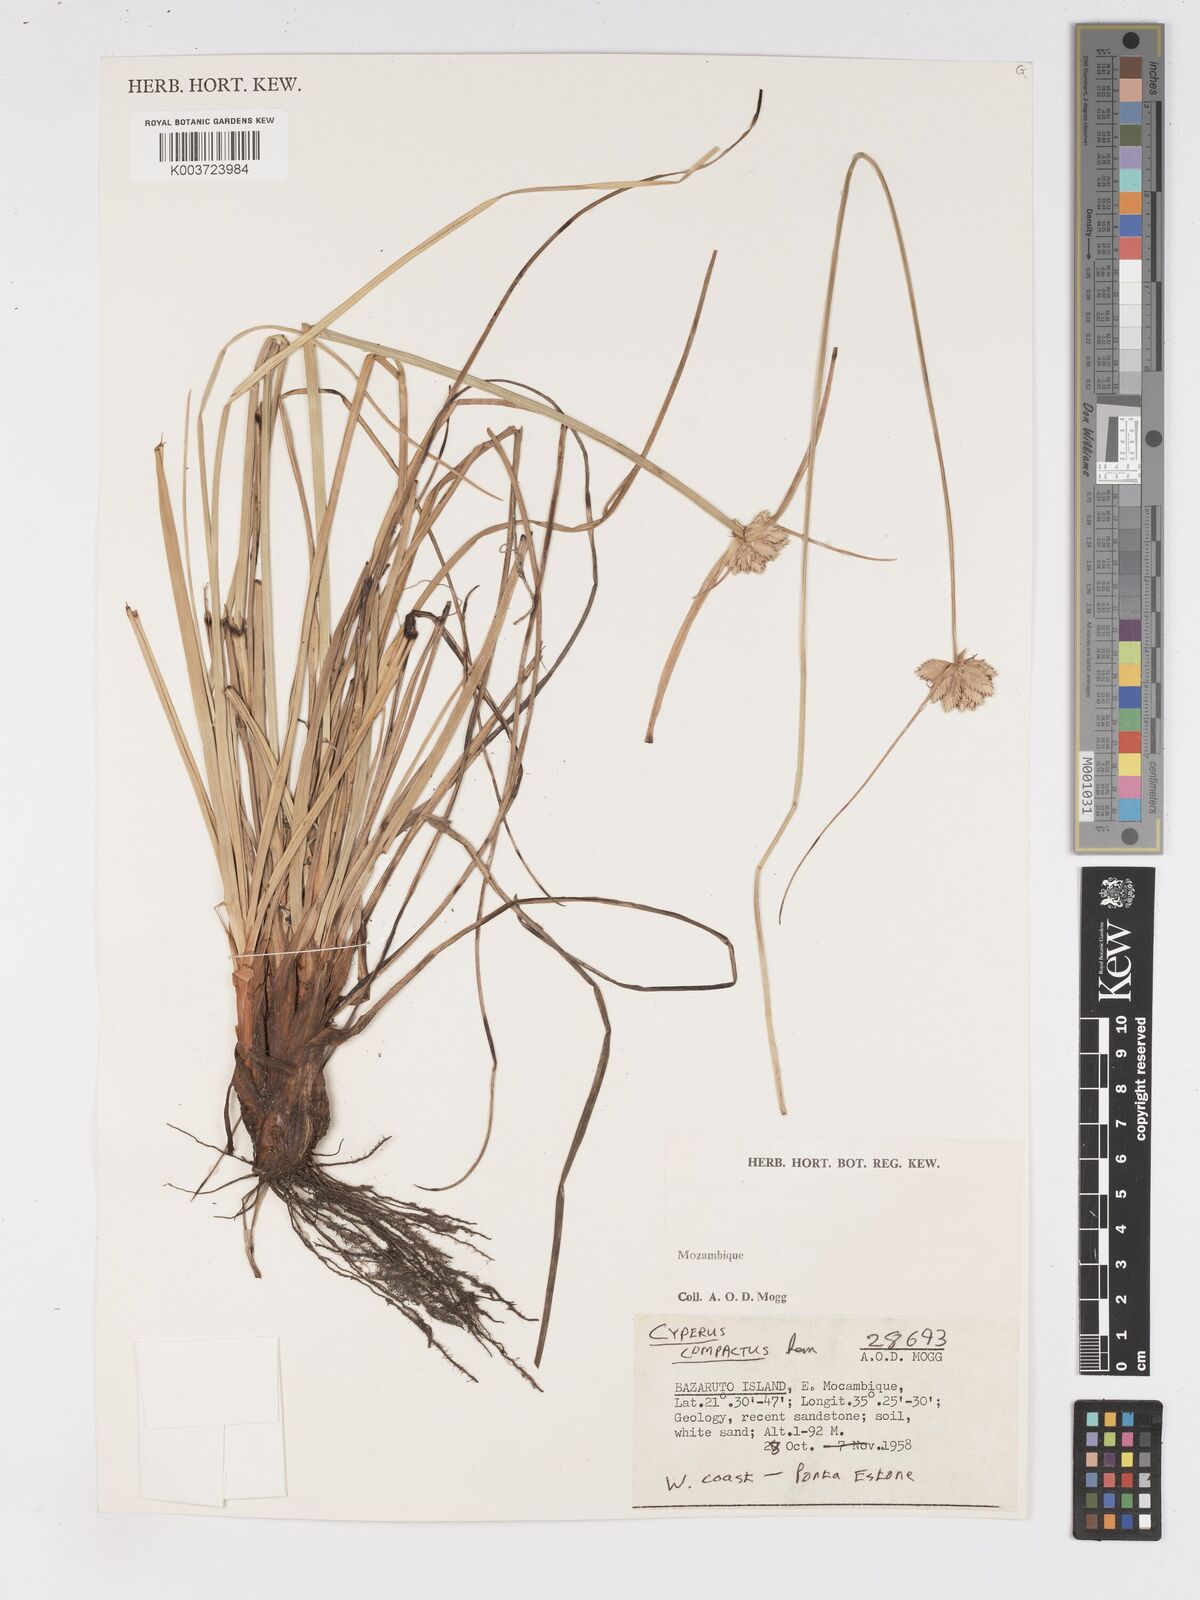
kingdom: Plantae
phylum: Tracheophyta
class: Liliopsida
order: Poales
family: Cyperaceae
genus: Cyperus
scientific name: Cyperus niveus
